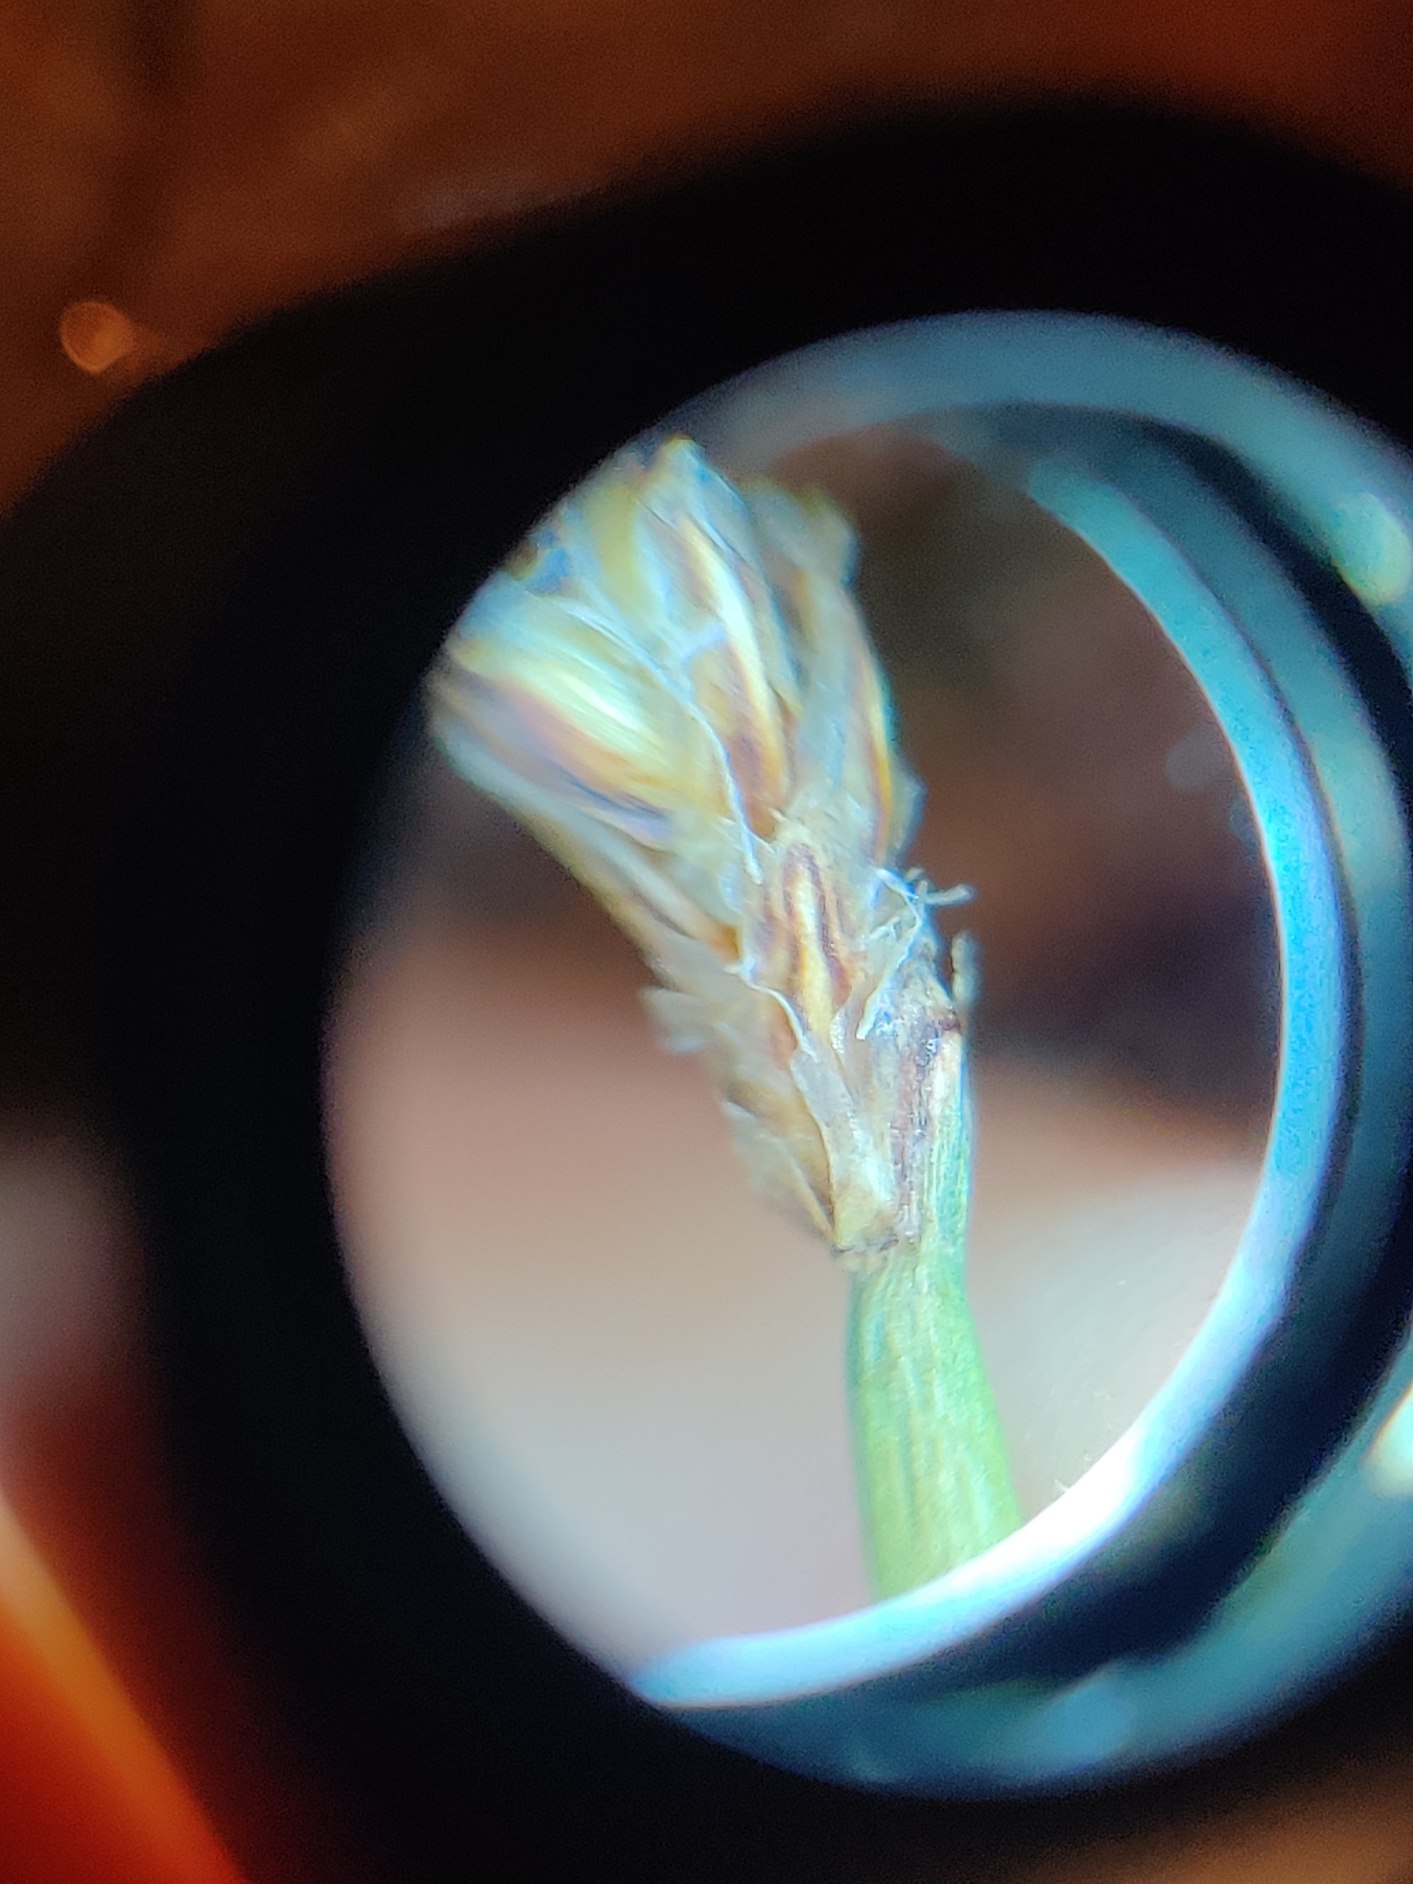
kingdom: Plantae
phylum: Tracheophyta
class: Liliopsida
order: Poales
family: Cyperaceae
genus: Eleocharis
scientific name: Eleocharis uniglumis
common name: Enskællet sumpstrå
